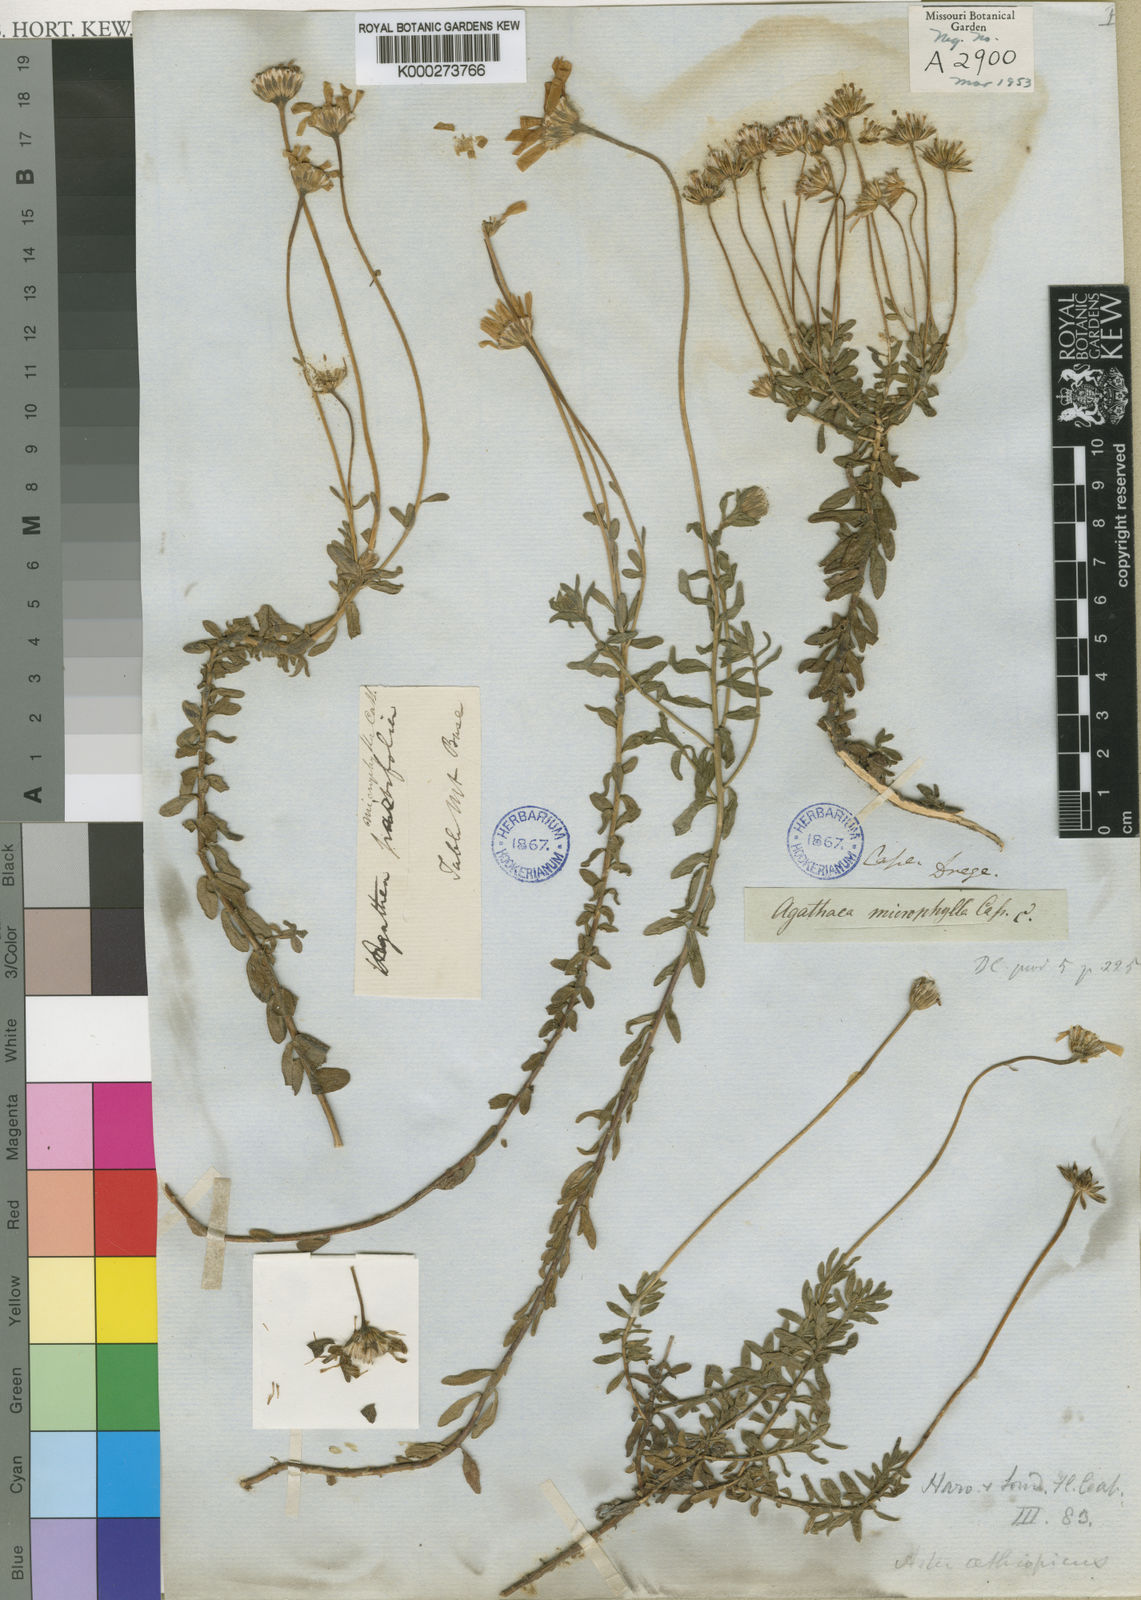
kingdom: Plantae
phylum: Tracheophyta
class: Magnoliopsida
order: Asterales
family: Asteraceae
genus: Felicia
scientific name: Felicia
